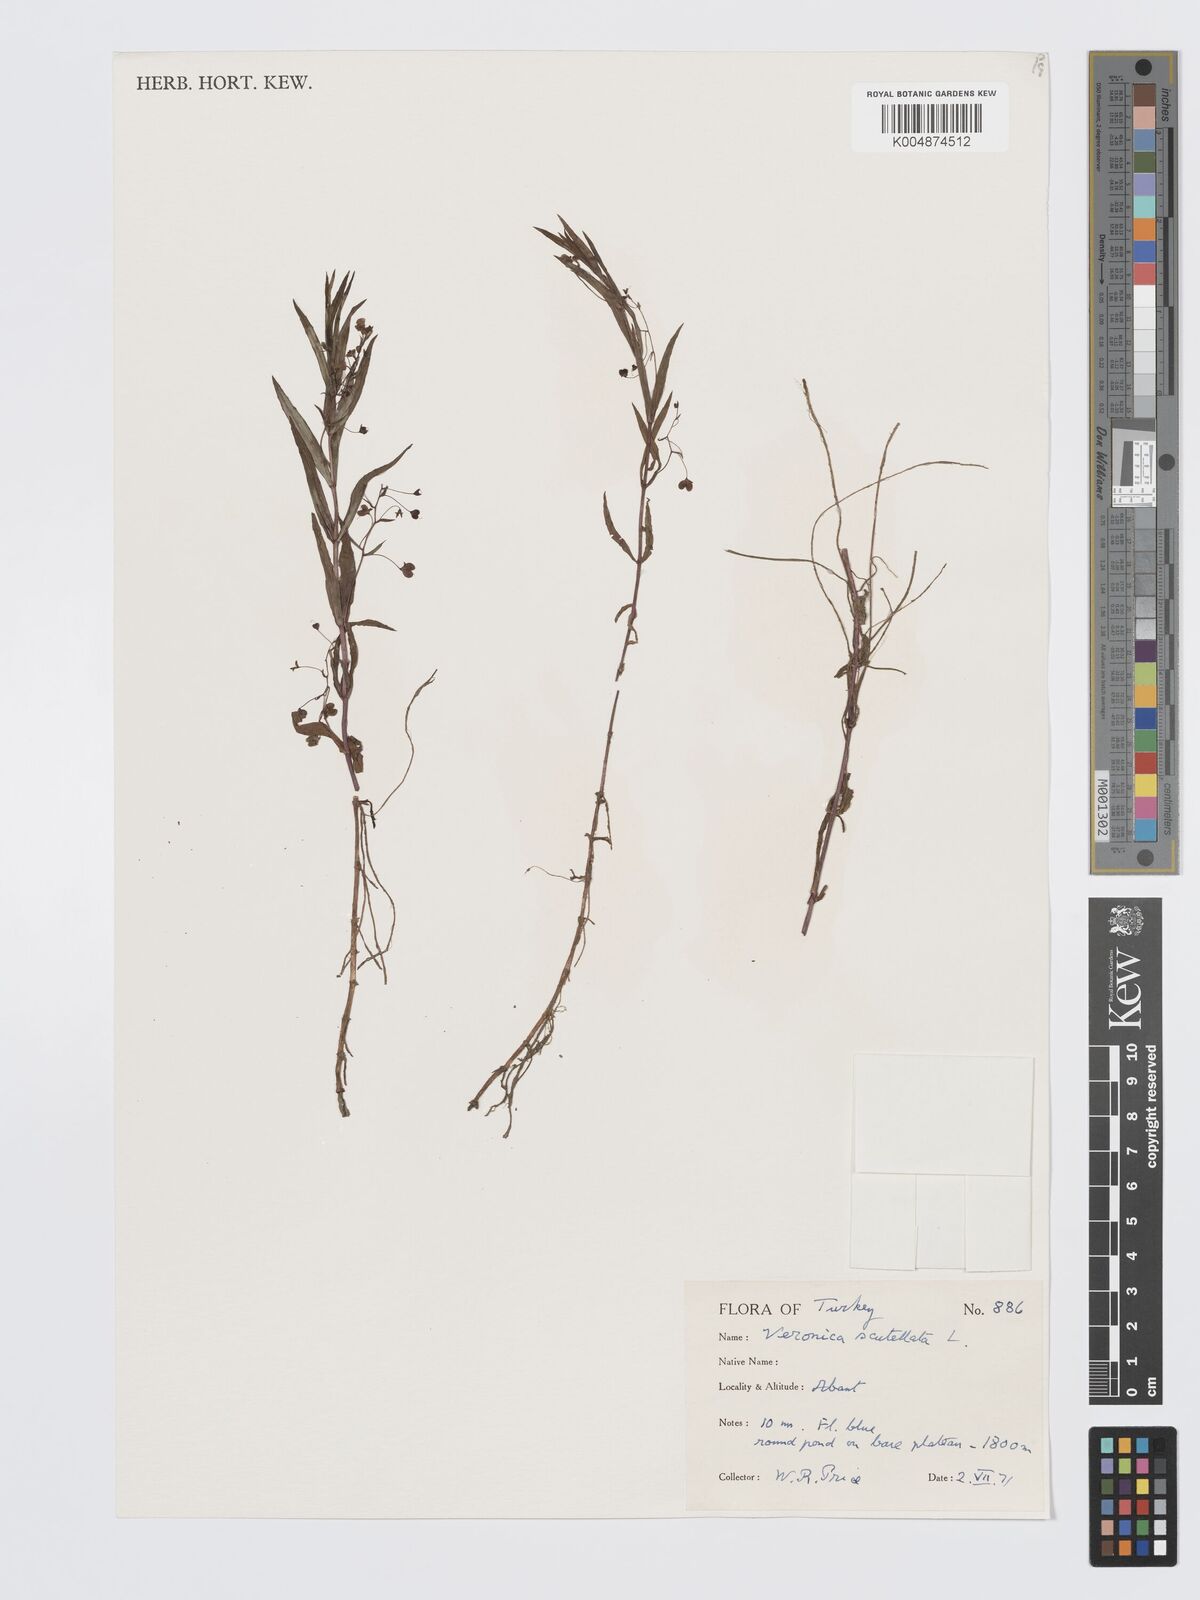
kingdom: Plantae
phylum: Tracheophyta
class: Magnoliopsida
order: Lamiales
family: Plantaginaceae
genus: Veronica
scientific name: Veronica scutellata
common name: Marsh speedwell
